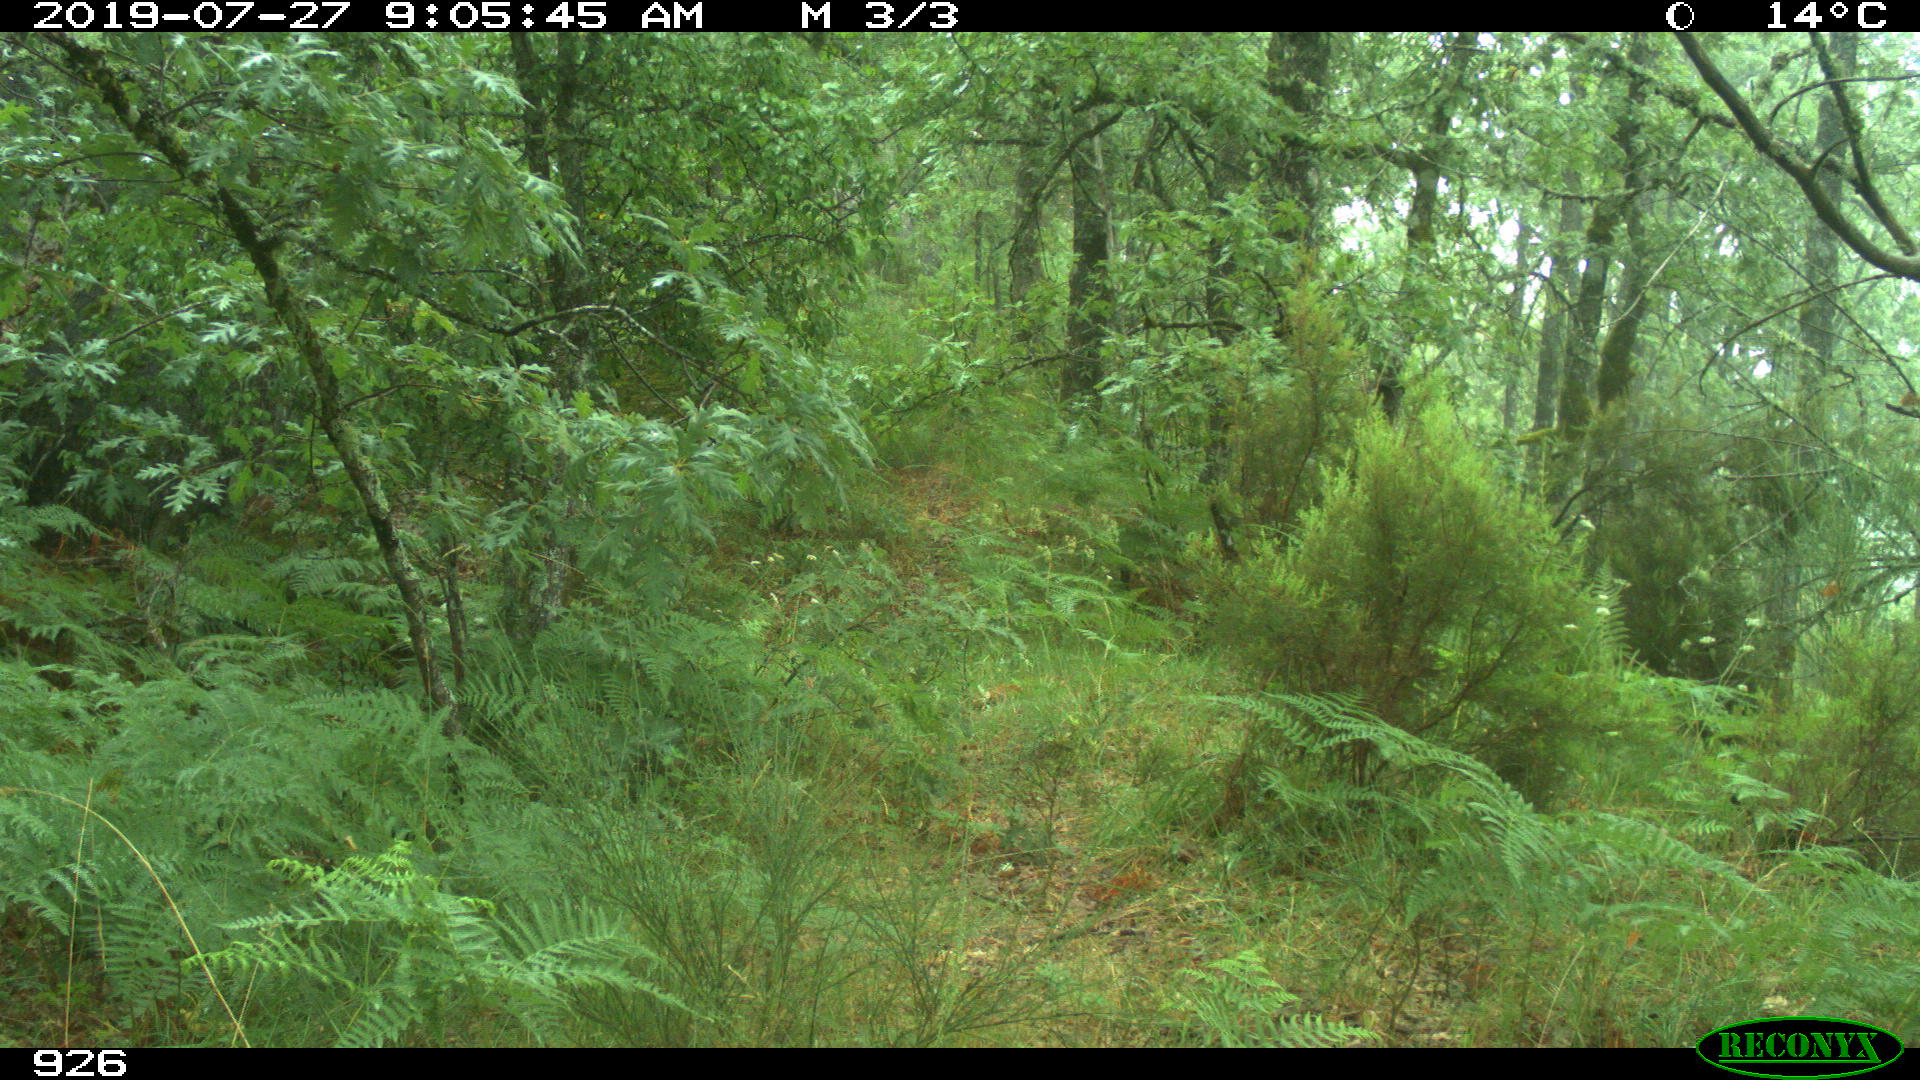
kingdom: Animalia
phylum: Chordata
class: Mammalia
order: Artiodactyla
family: Cervidae
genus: Capreolus
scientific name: Capreolus capreolus
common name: Western roe deer
